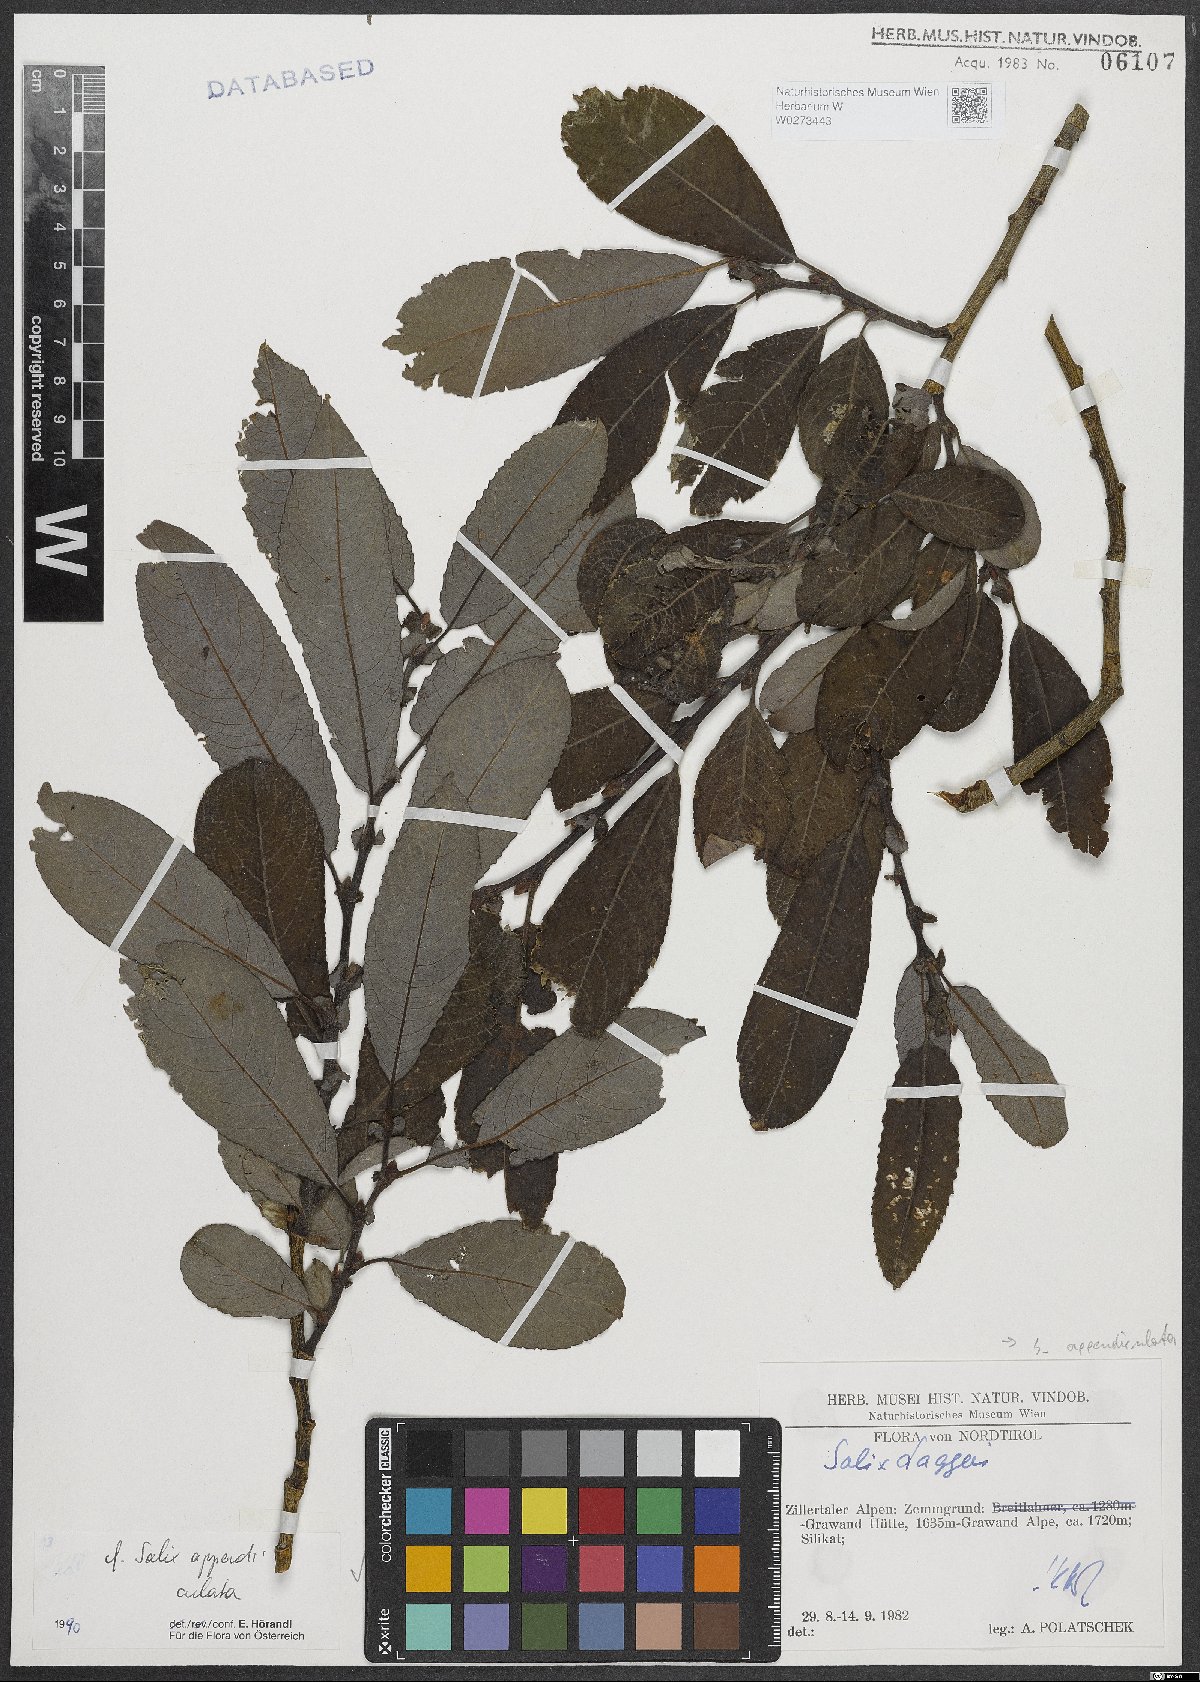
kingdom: Plantae
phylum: Tracheophyta
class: Magnoliopsida
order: Malpighiales
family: Salicaceae
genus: Salix
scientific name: Salix appendiculata
